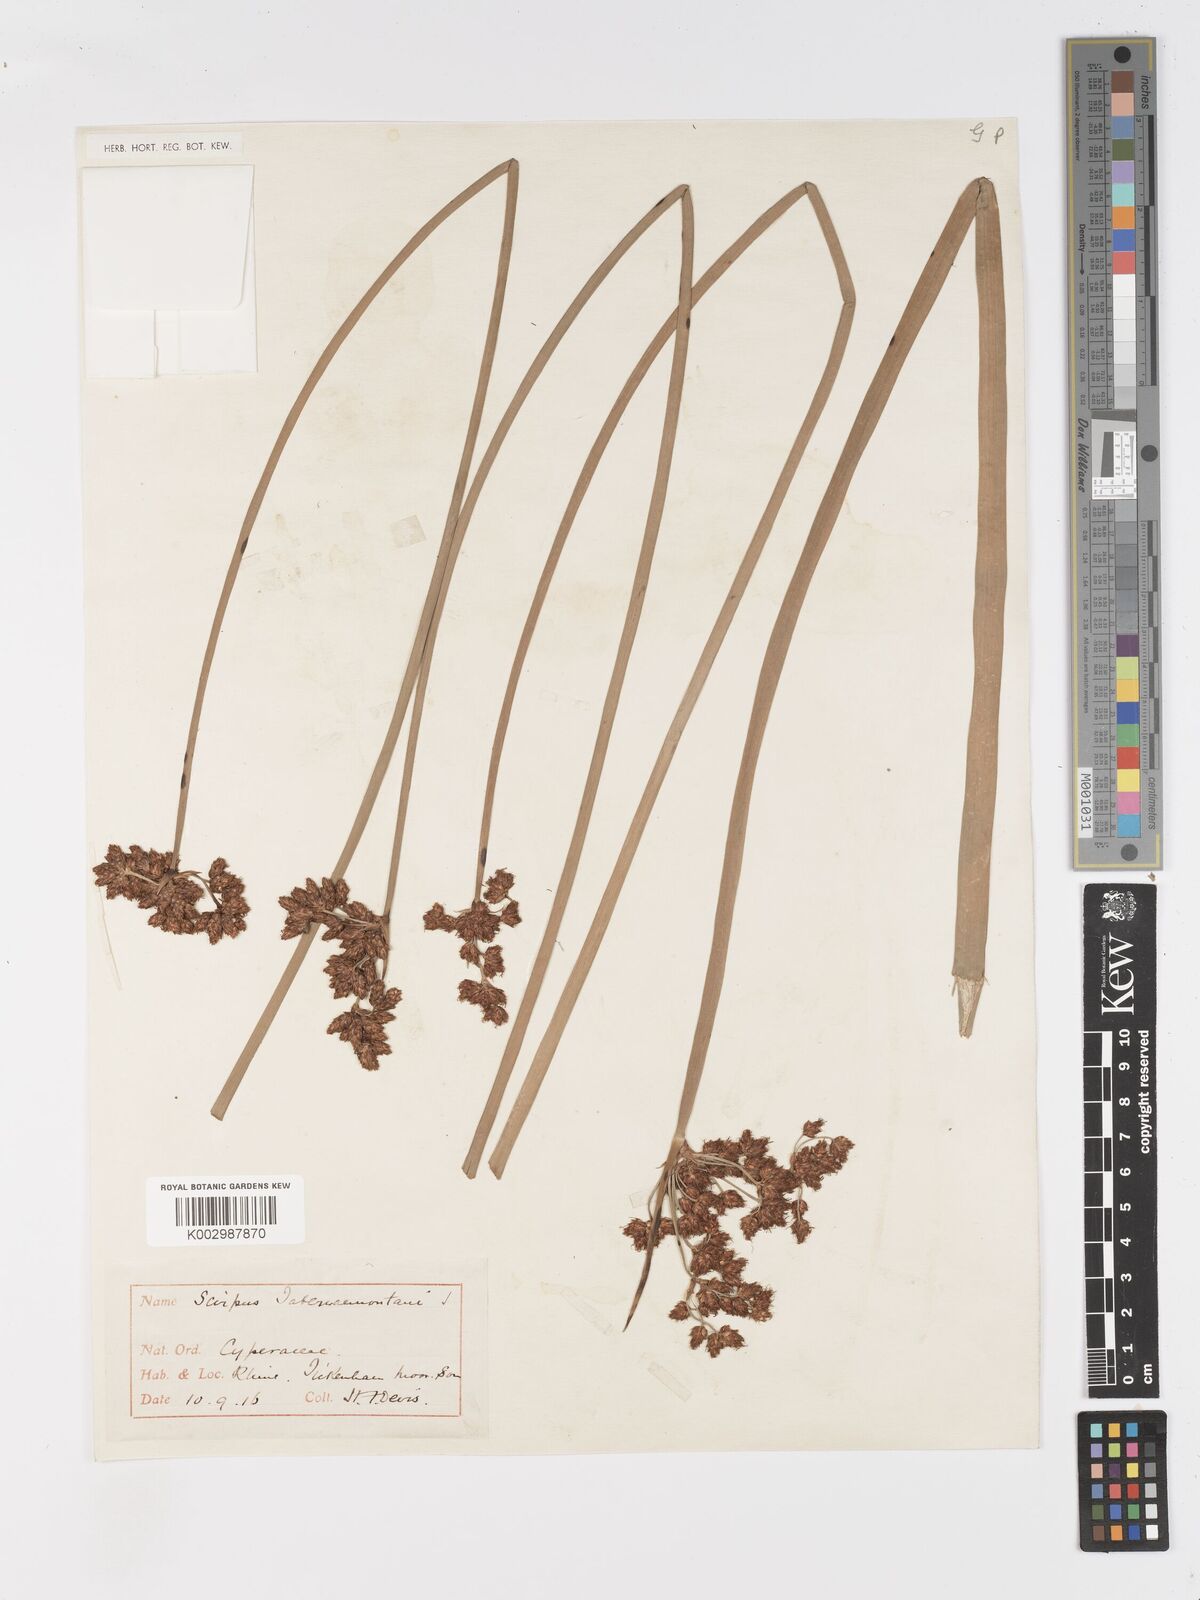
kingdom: Plantae
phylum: Tracheophyta
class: Liliopsida
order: Poales
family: Cyperaceae
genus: Schoenoplectus
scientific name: Schoenoplectus tabernaemontani
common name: Grey club-rush
